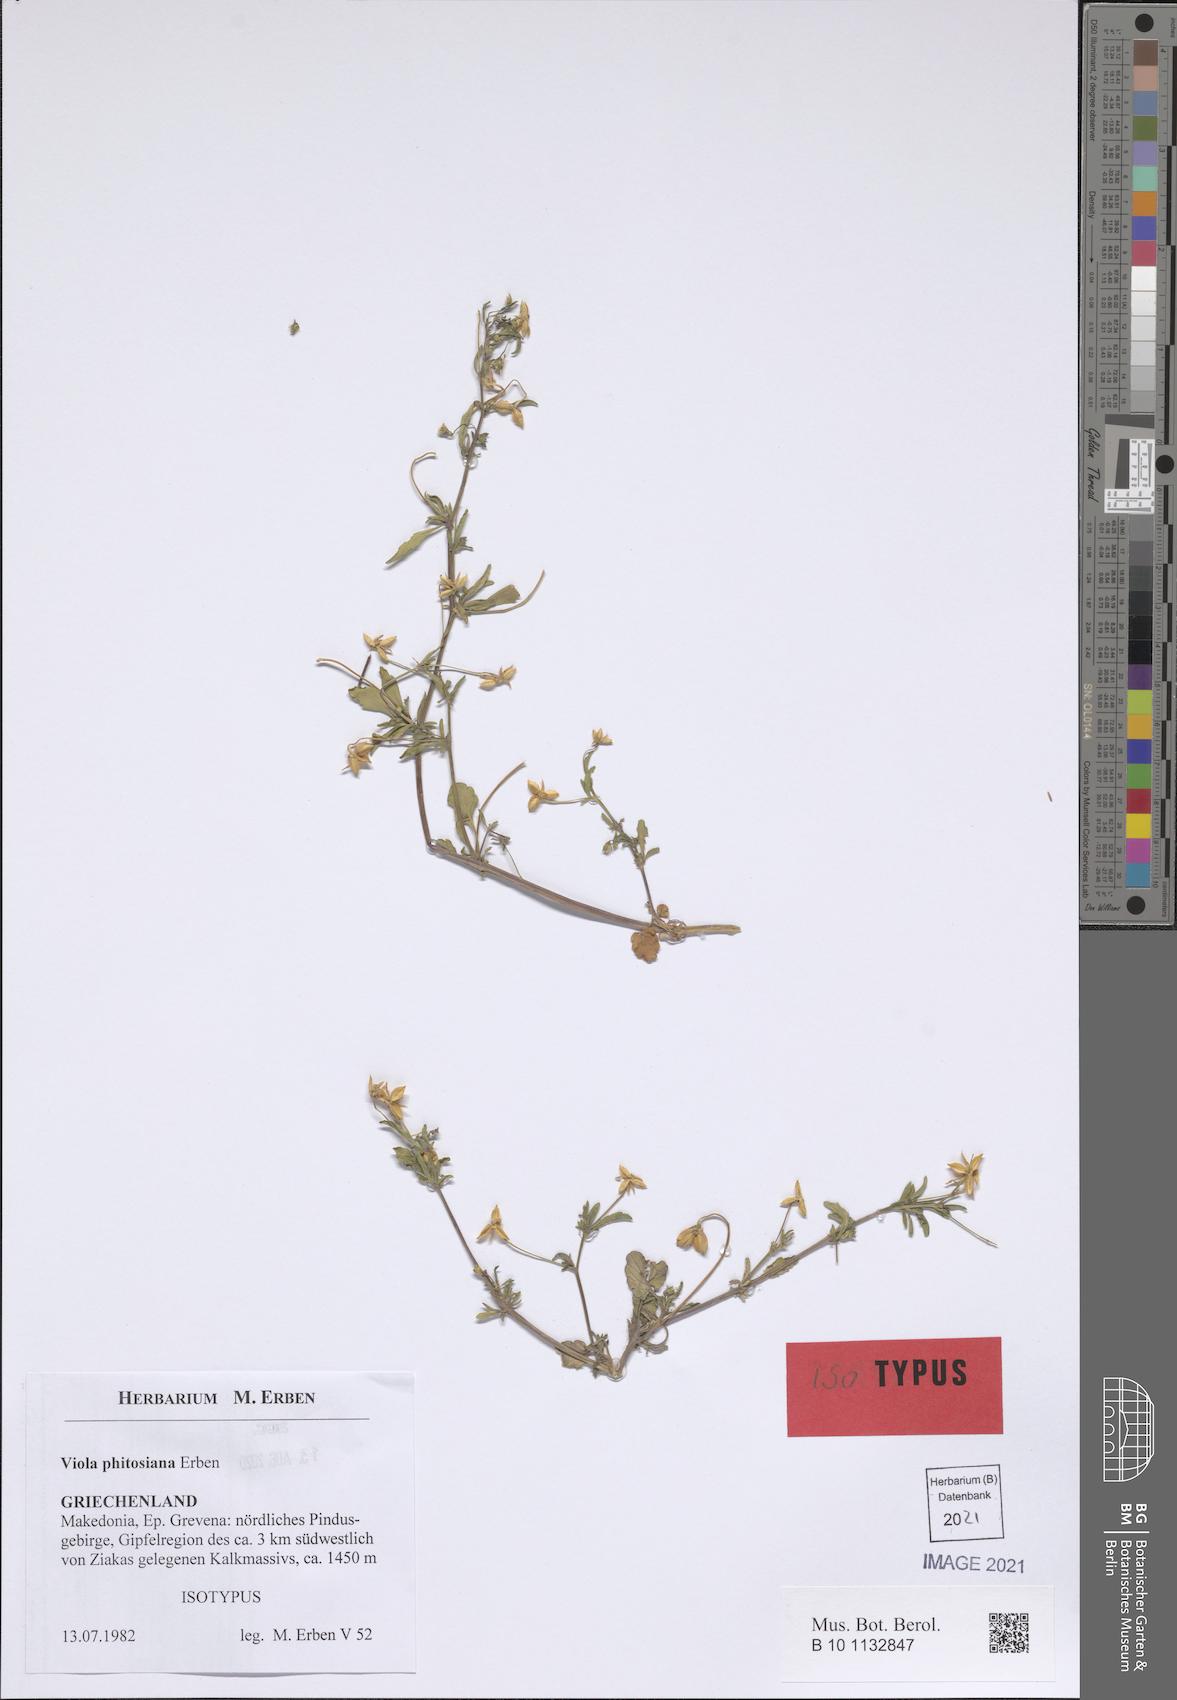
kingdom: Plantae
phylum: Tracheophyta
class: Magnoliopsida
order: Malpighiales
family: Violaceae
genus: Viola
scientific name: Viola phitosiana
